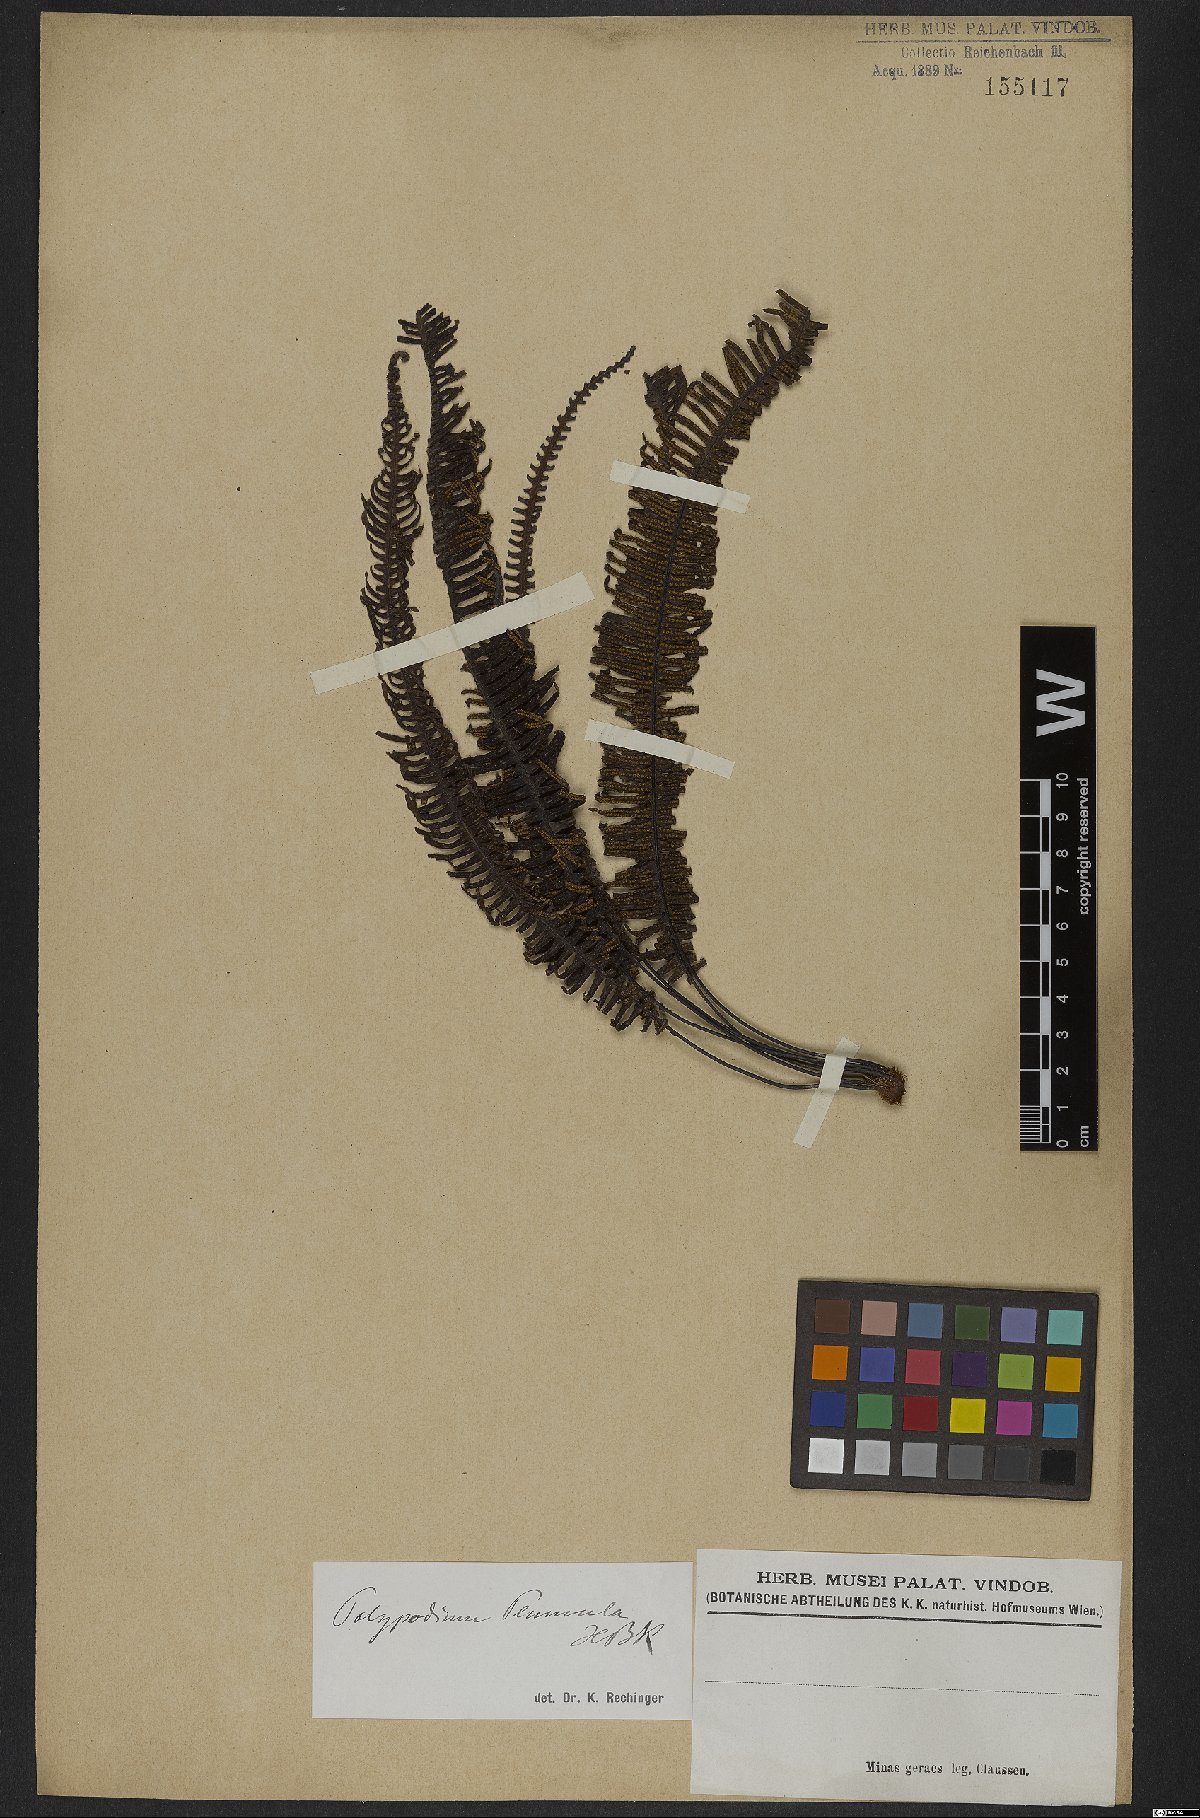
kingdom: Plantae
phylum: Tracheophyta
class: Polypodiopsida
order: Polypodiales
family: Polypodiaceae
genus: Pecluma
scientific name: Pecluma plumula
